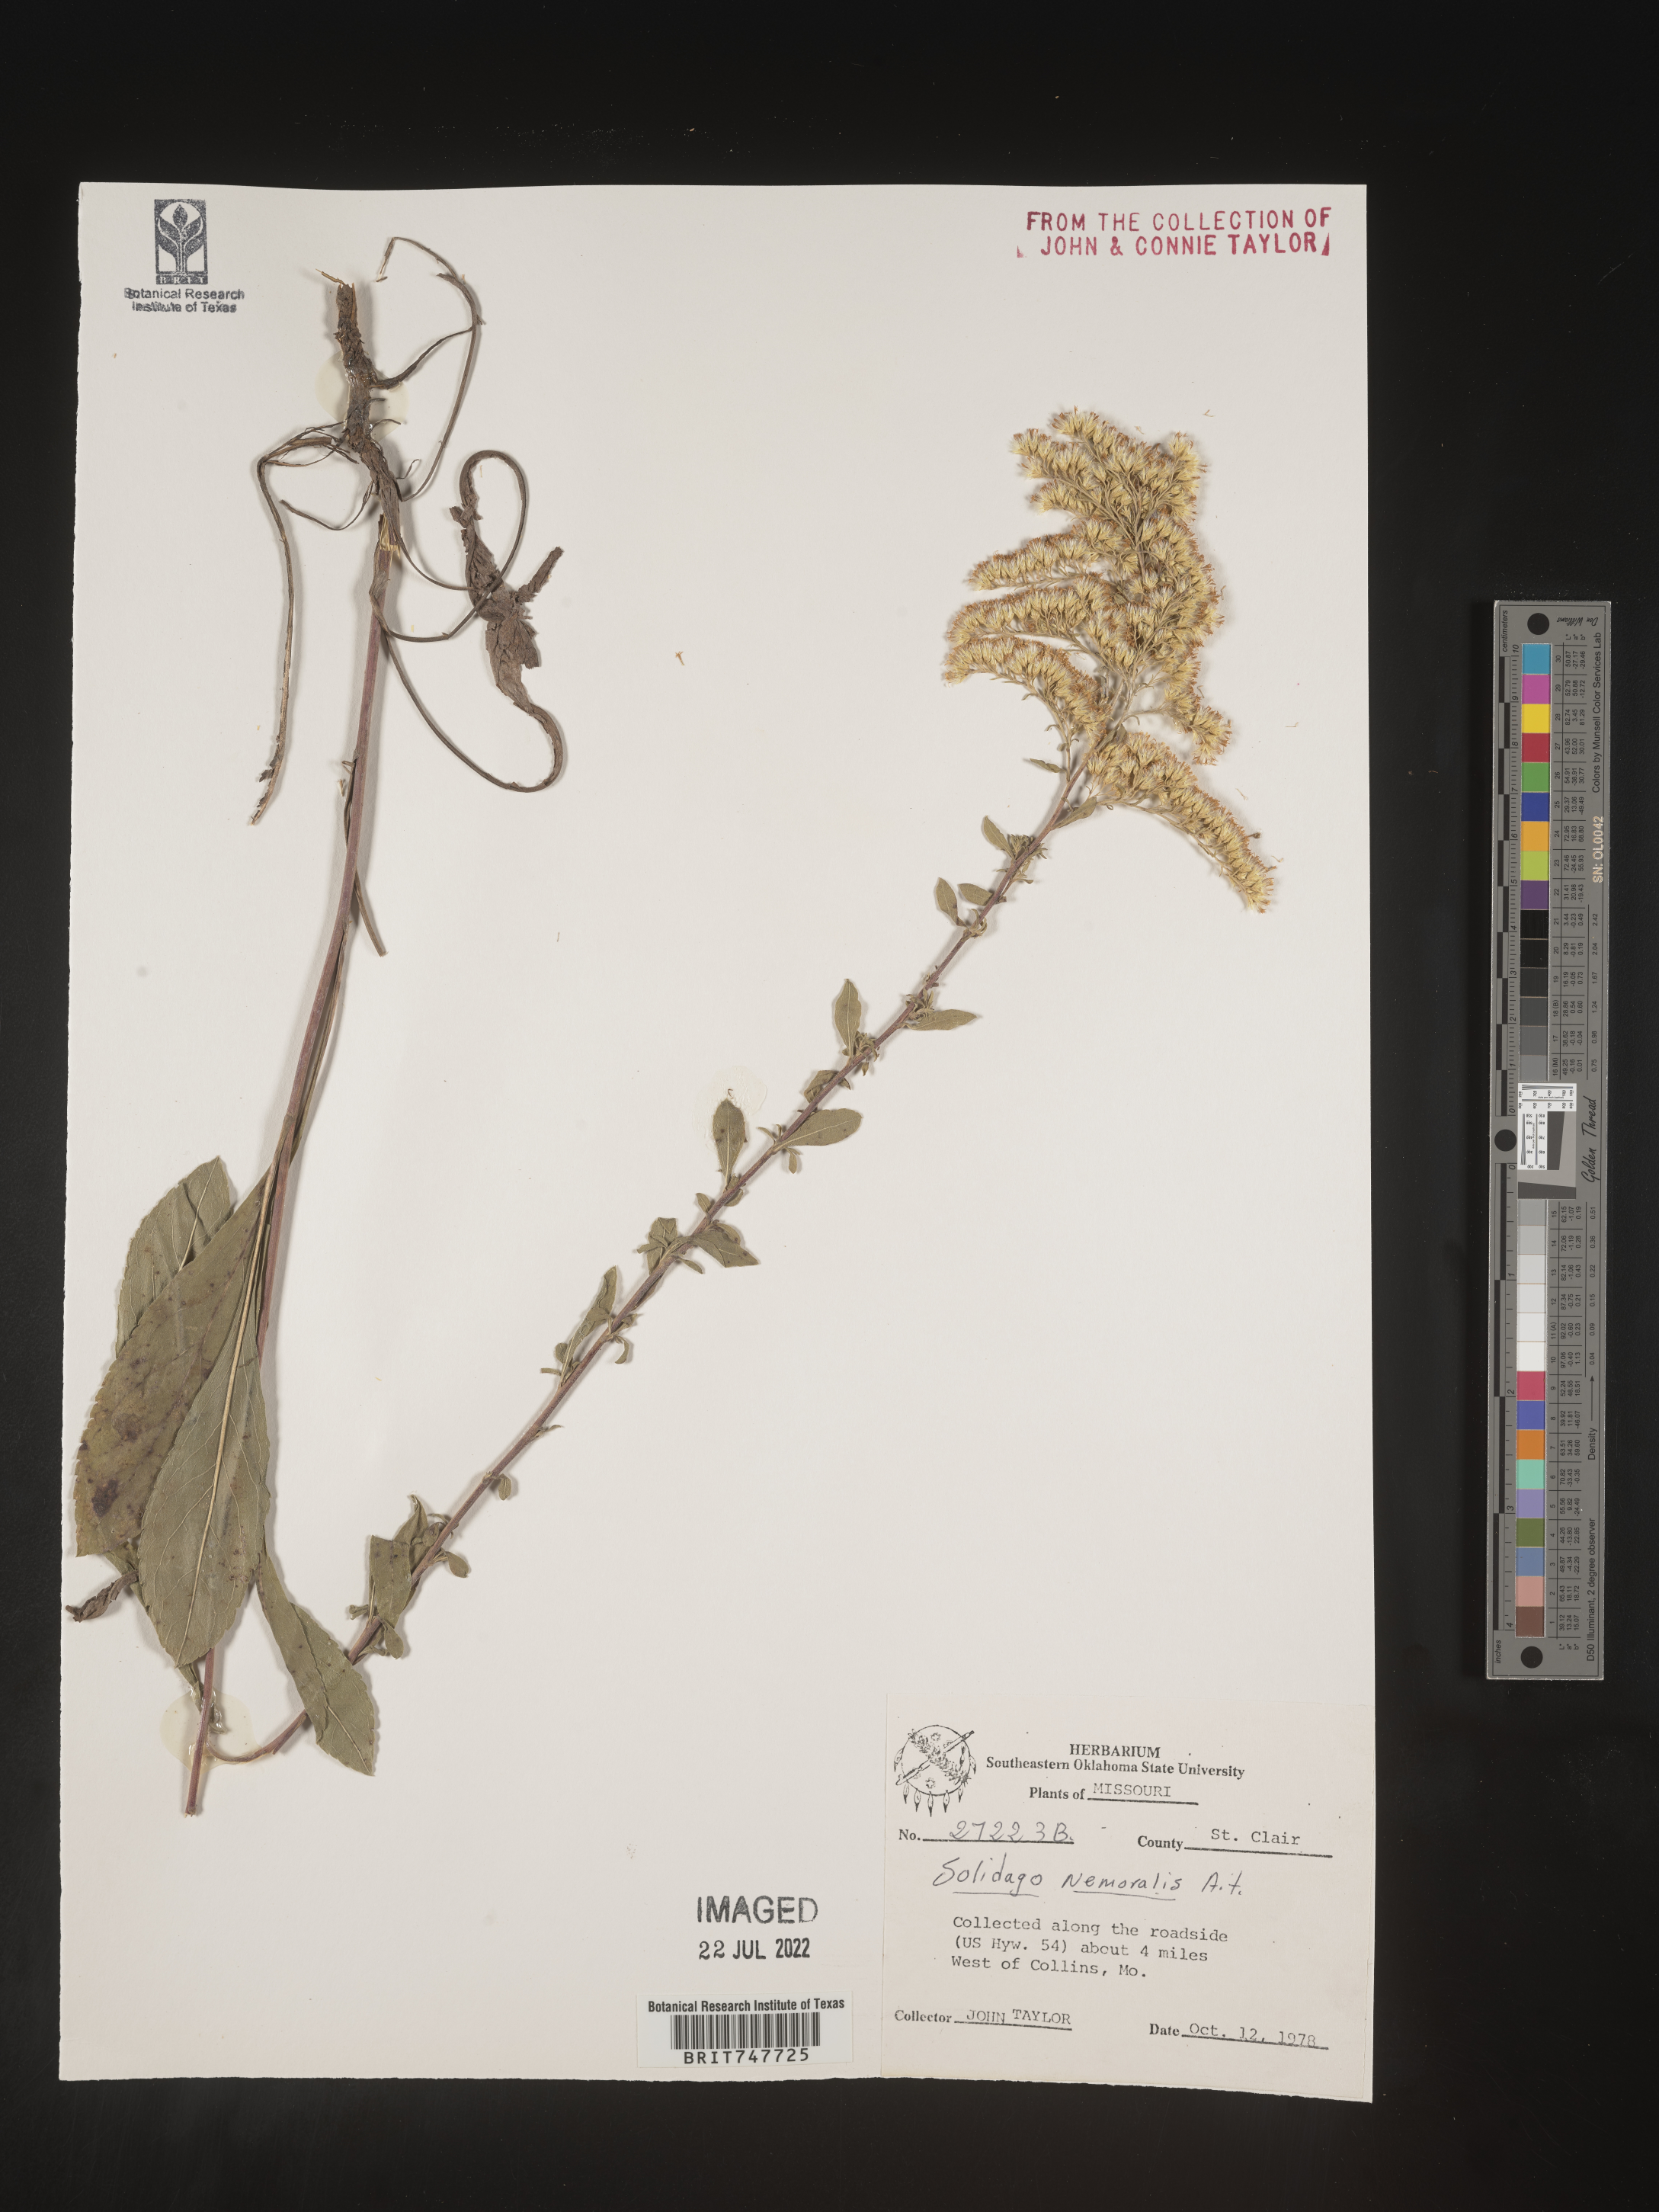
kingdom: Plantae
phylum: Tracheophyta
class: Magnoliopsida
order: Asterales
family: Asteraceae
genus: Solidago
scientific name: Solidago nemoralis
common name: Grey goldenrod
